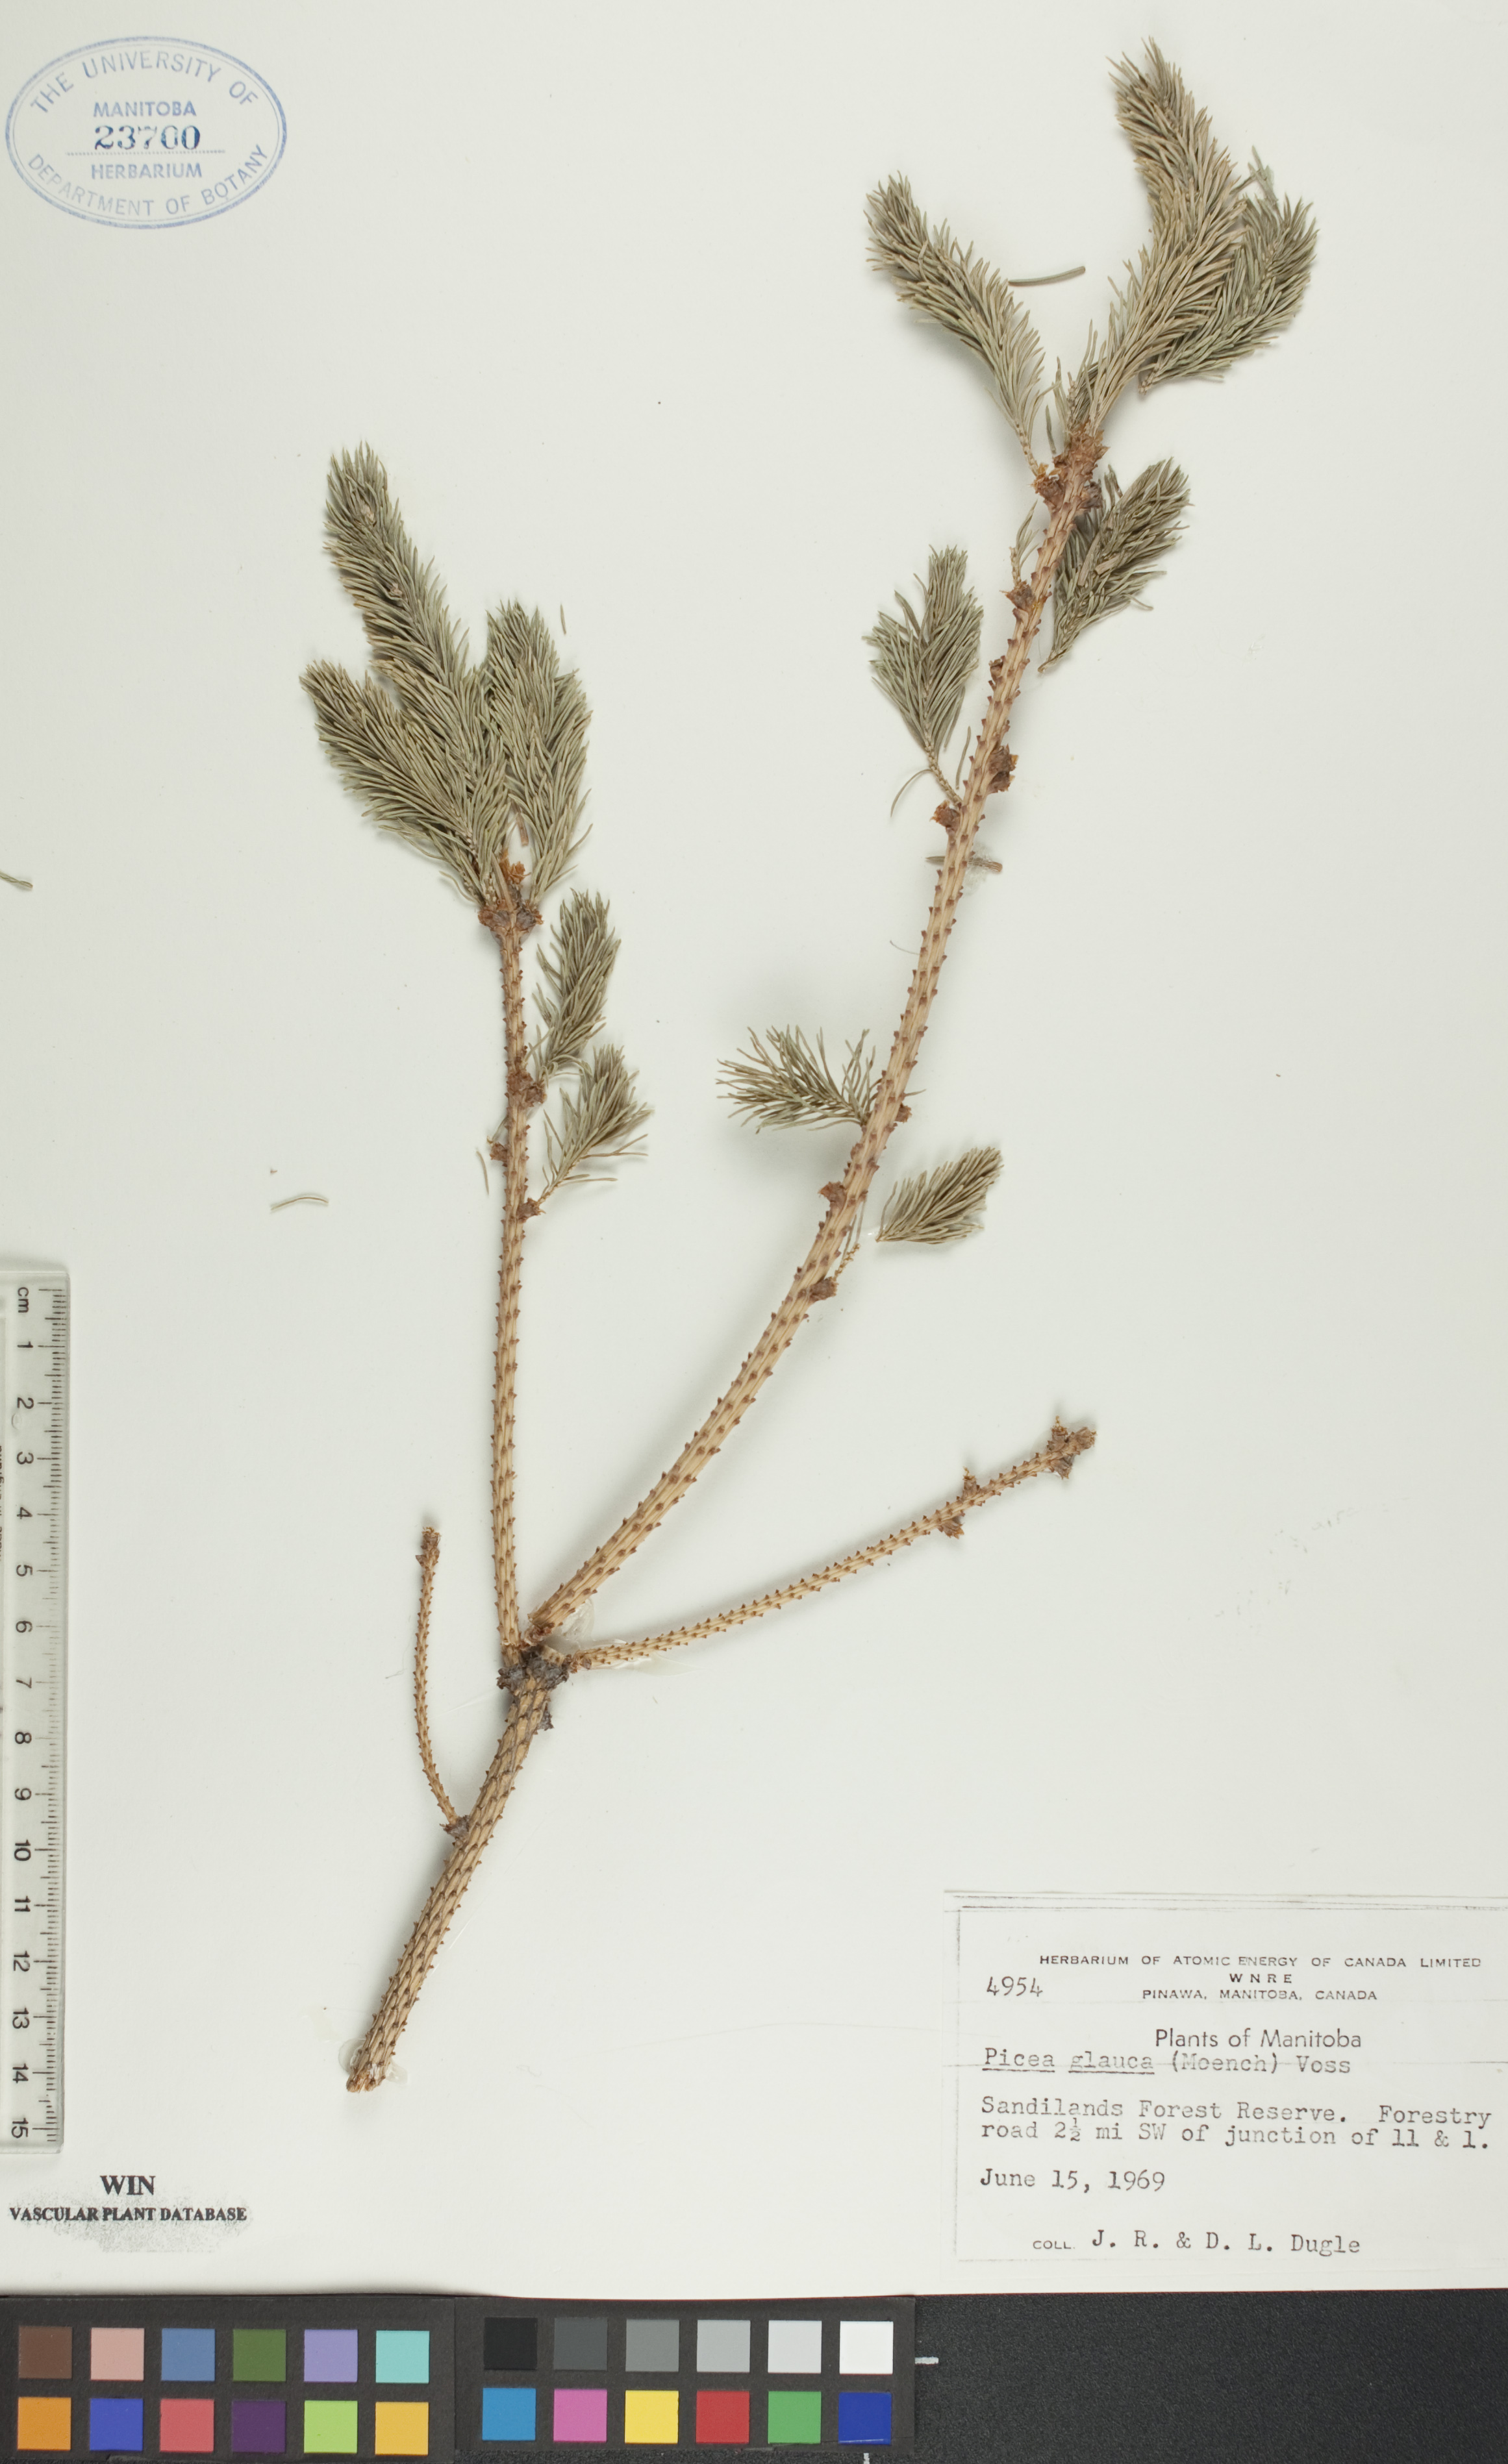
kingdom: Plantae
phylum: Tracheophyta
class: Pinopsida
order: Pinales
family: Pinaceae
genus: Picea
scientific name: Picea glauca
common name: White spruce
